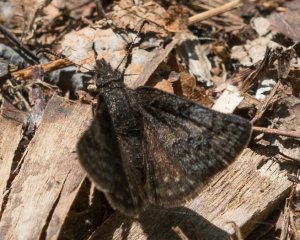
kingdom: Animalia
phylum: Arthropoda
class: Insecta
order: Lepidoptera
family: Hesperiidae
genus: Erynnis
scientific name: Erynnis icelus
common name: Dreamy Duskywing
